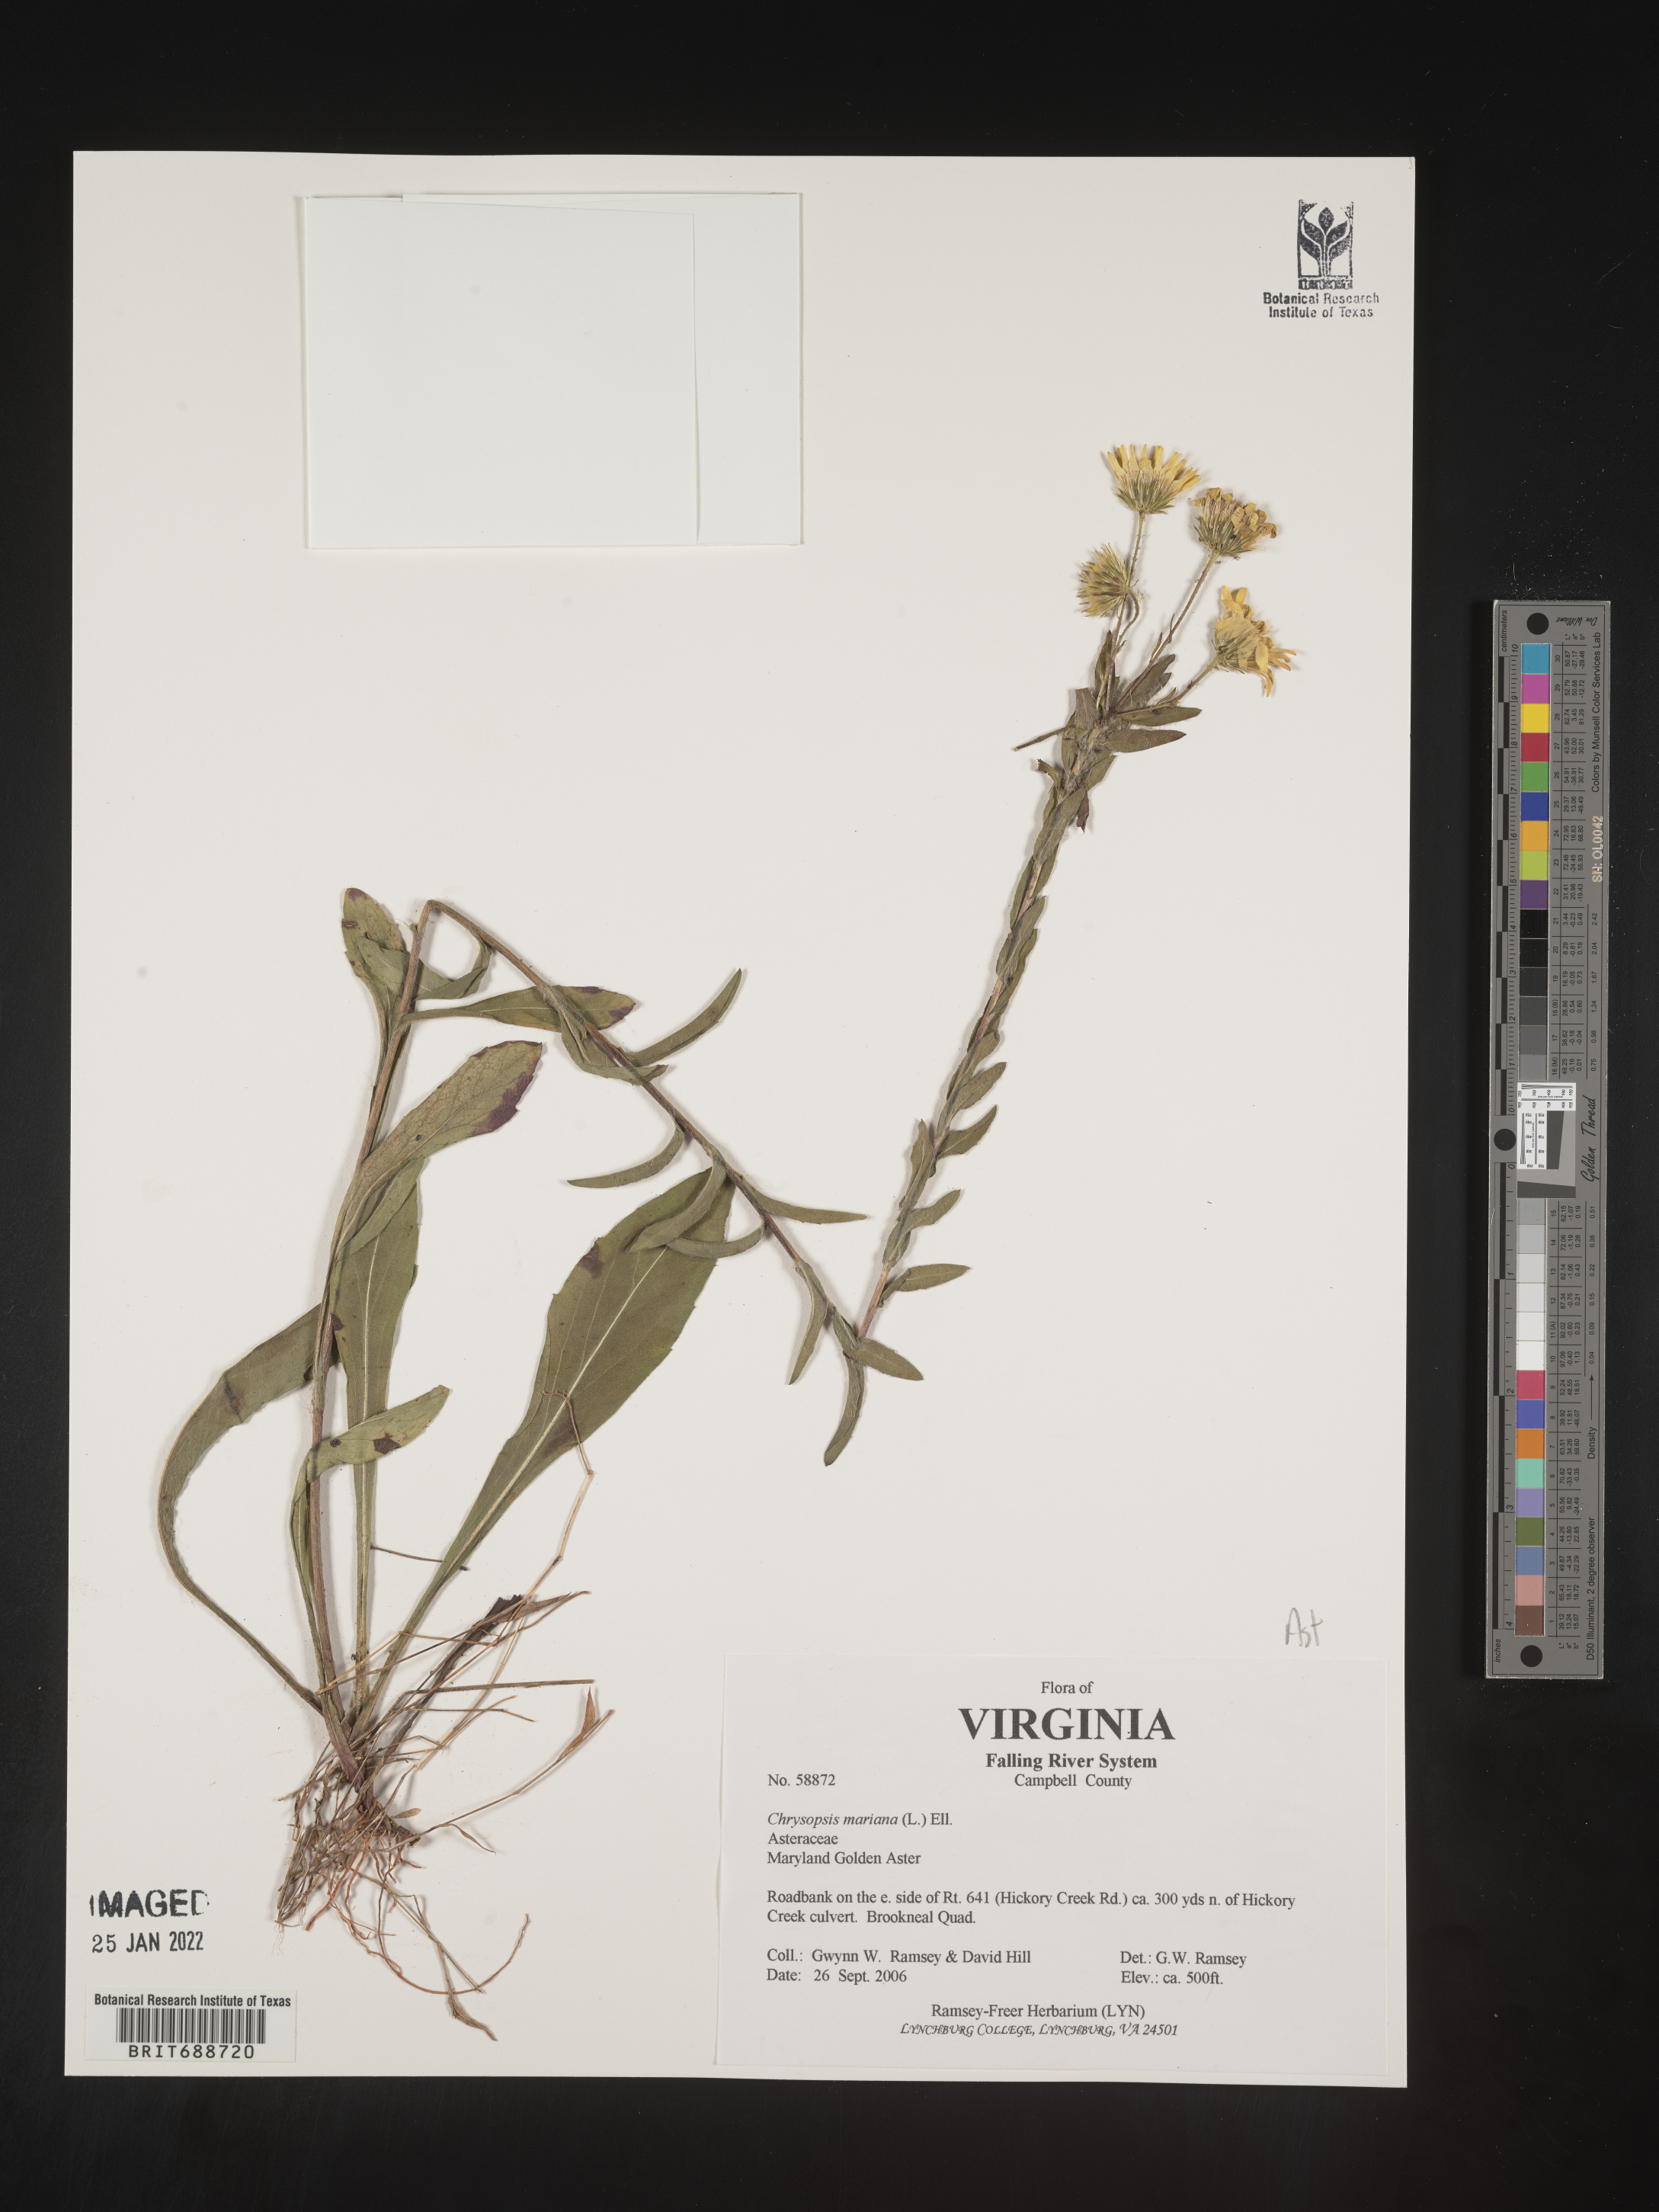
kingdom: Plantae
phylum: Tracheophyta
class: Magnoliopsida
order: Asterales
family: Asteraceae
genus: Chrysopsis
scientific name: Chrysopsis mariana
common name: Maryland golden-aster
